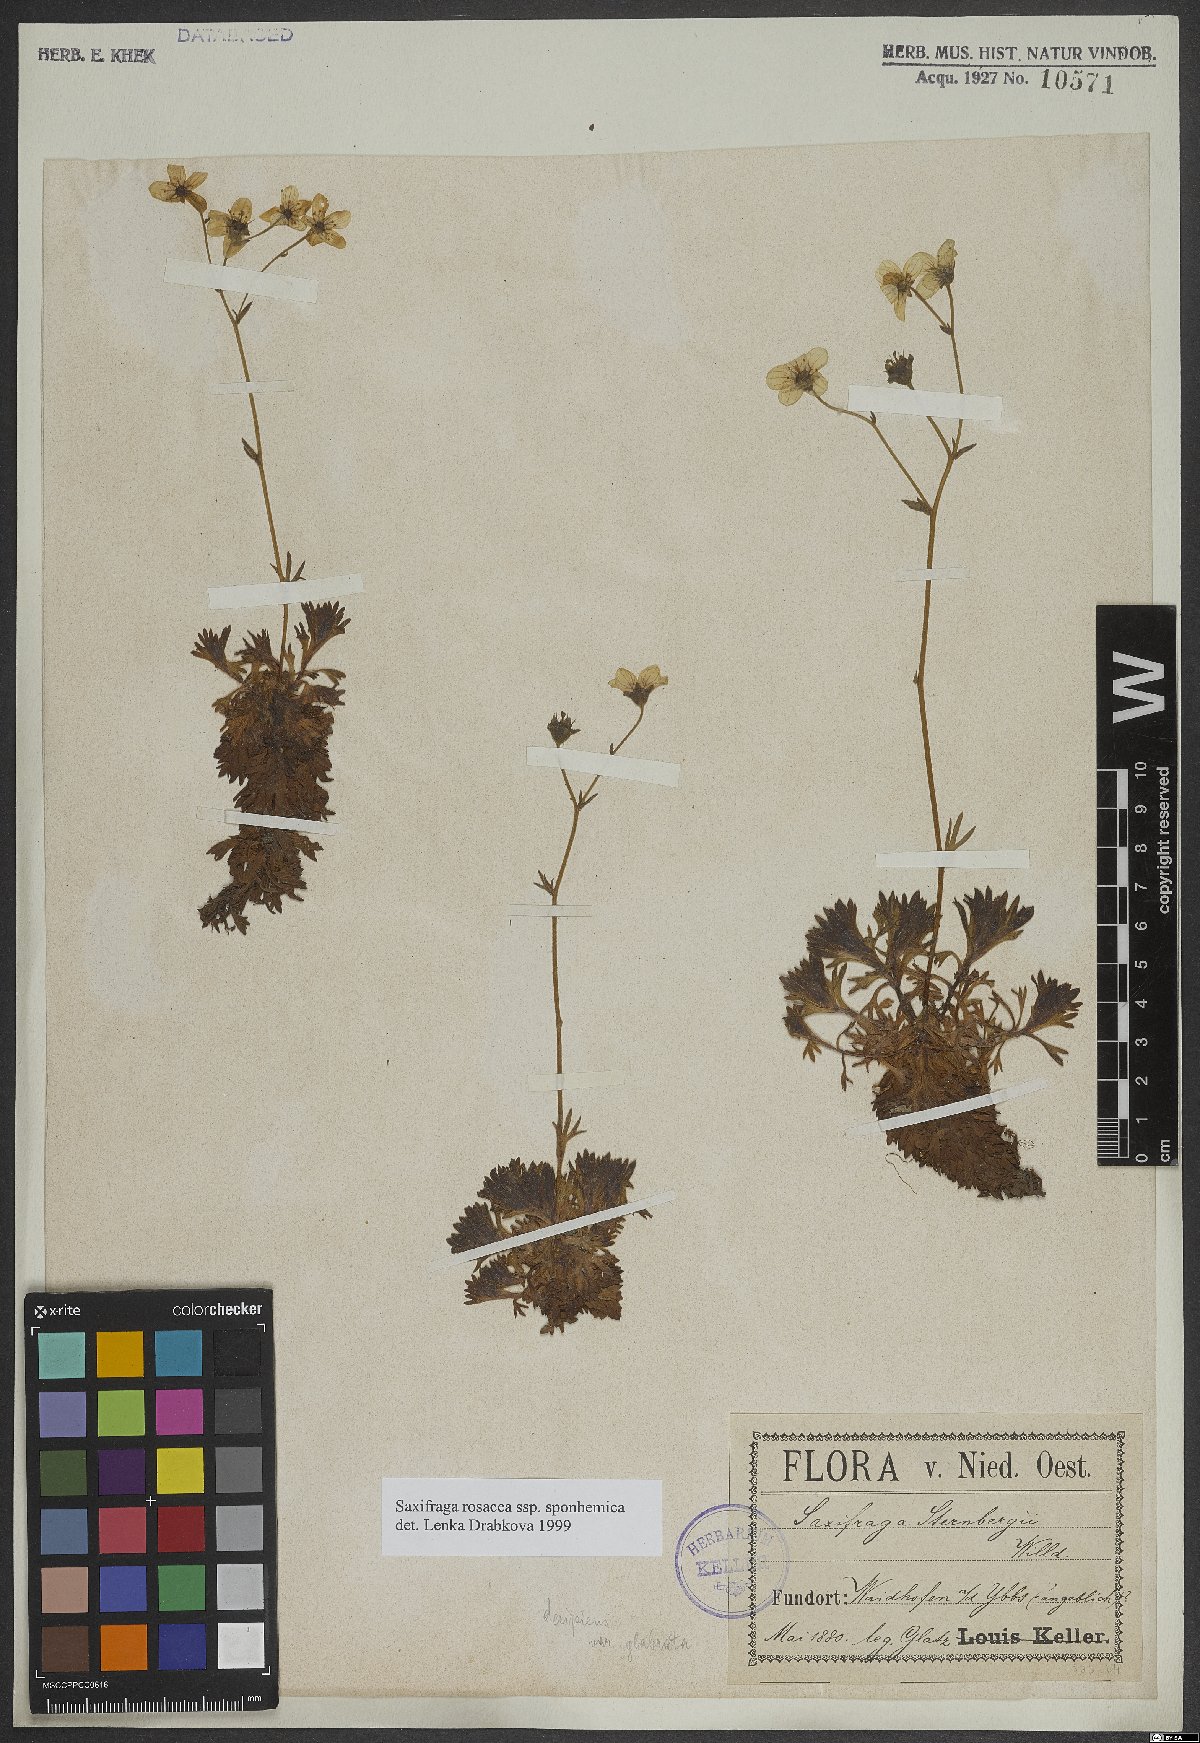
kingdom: Plantae
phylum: Tracheophyta
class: Magnoliopsida
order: Saxifragales
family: Saxifragaceae
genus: Saxifraga
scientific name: Saxifraga rosacea
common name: Irish saxifrage
